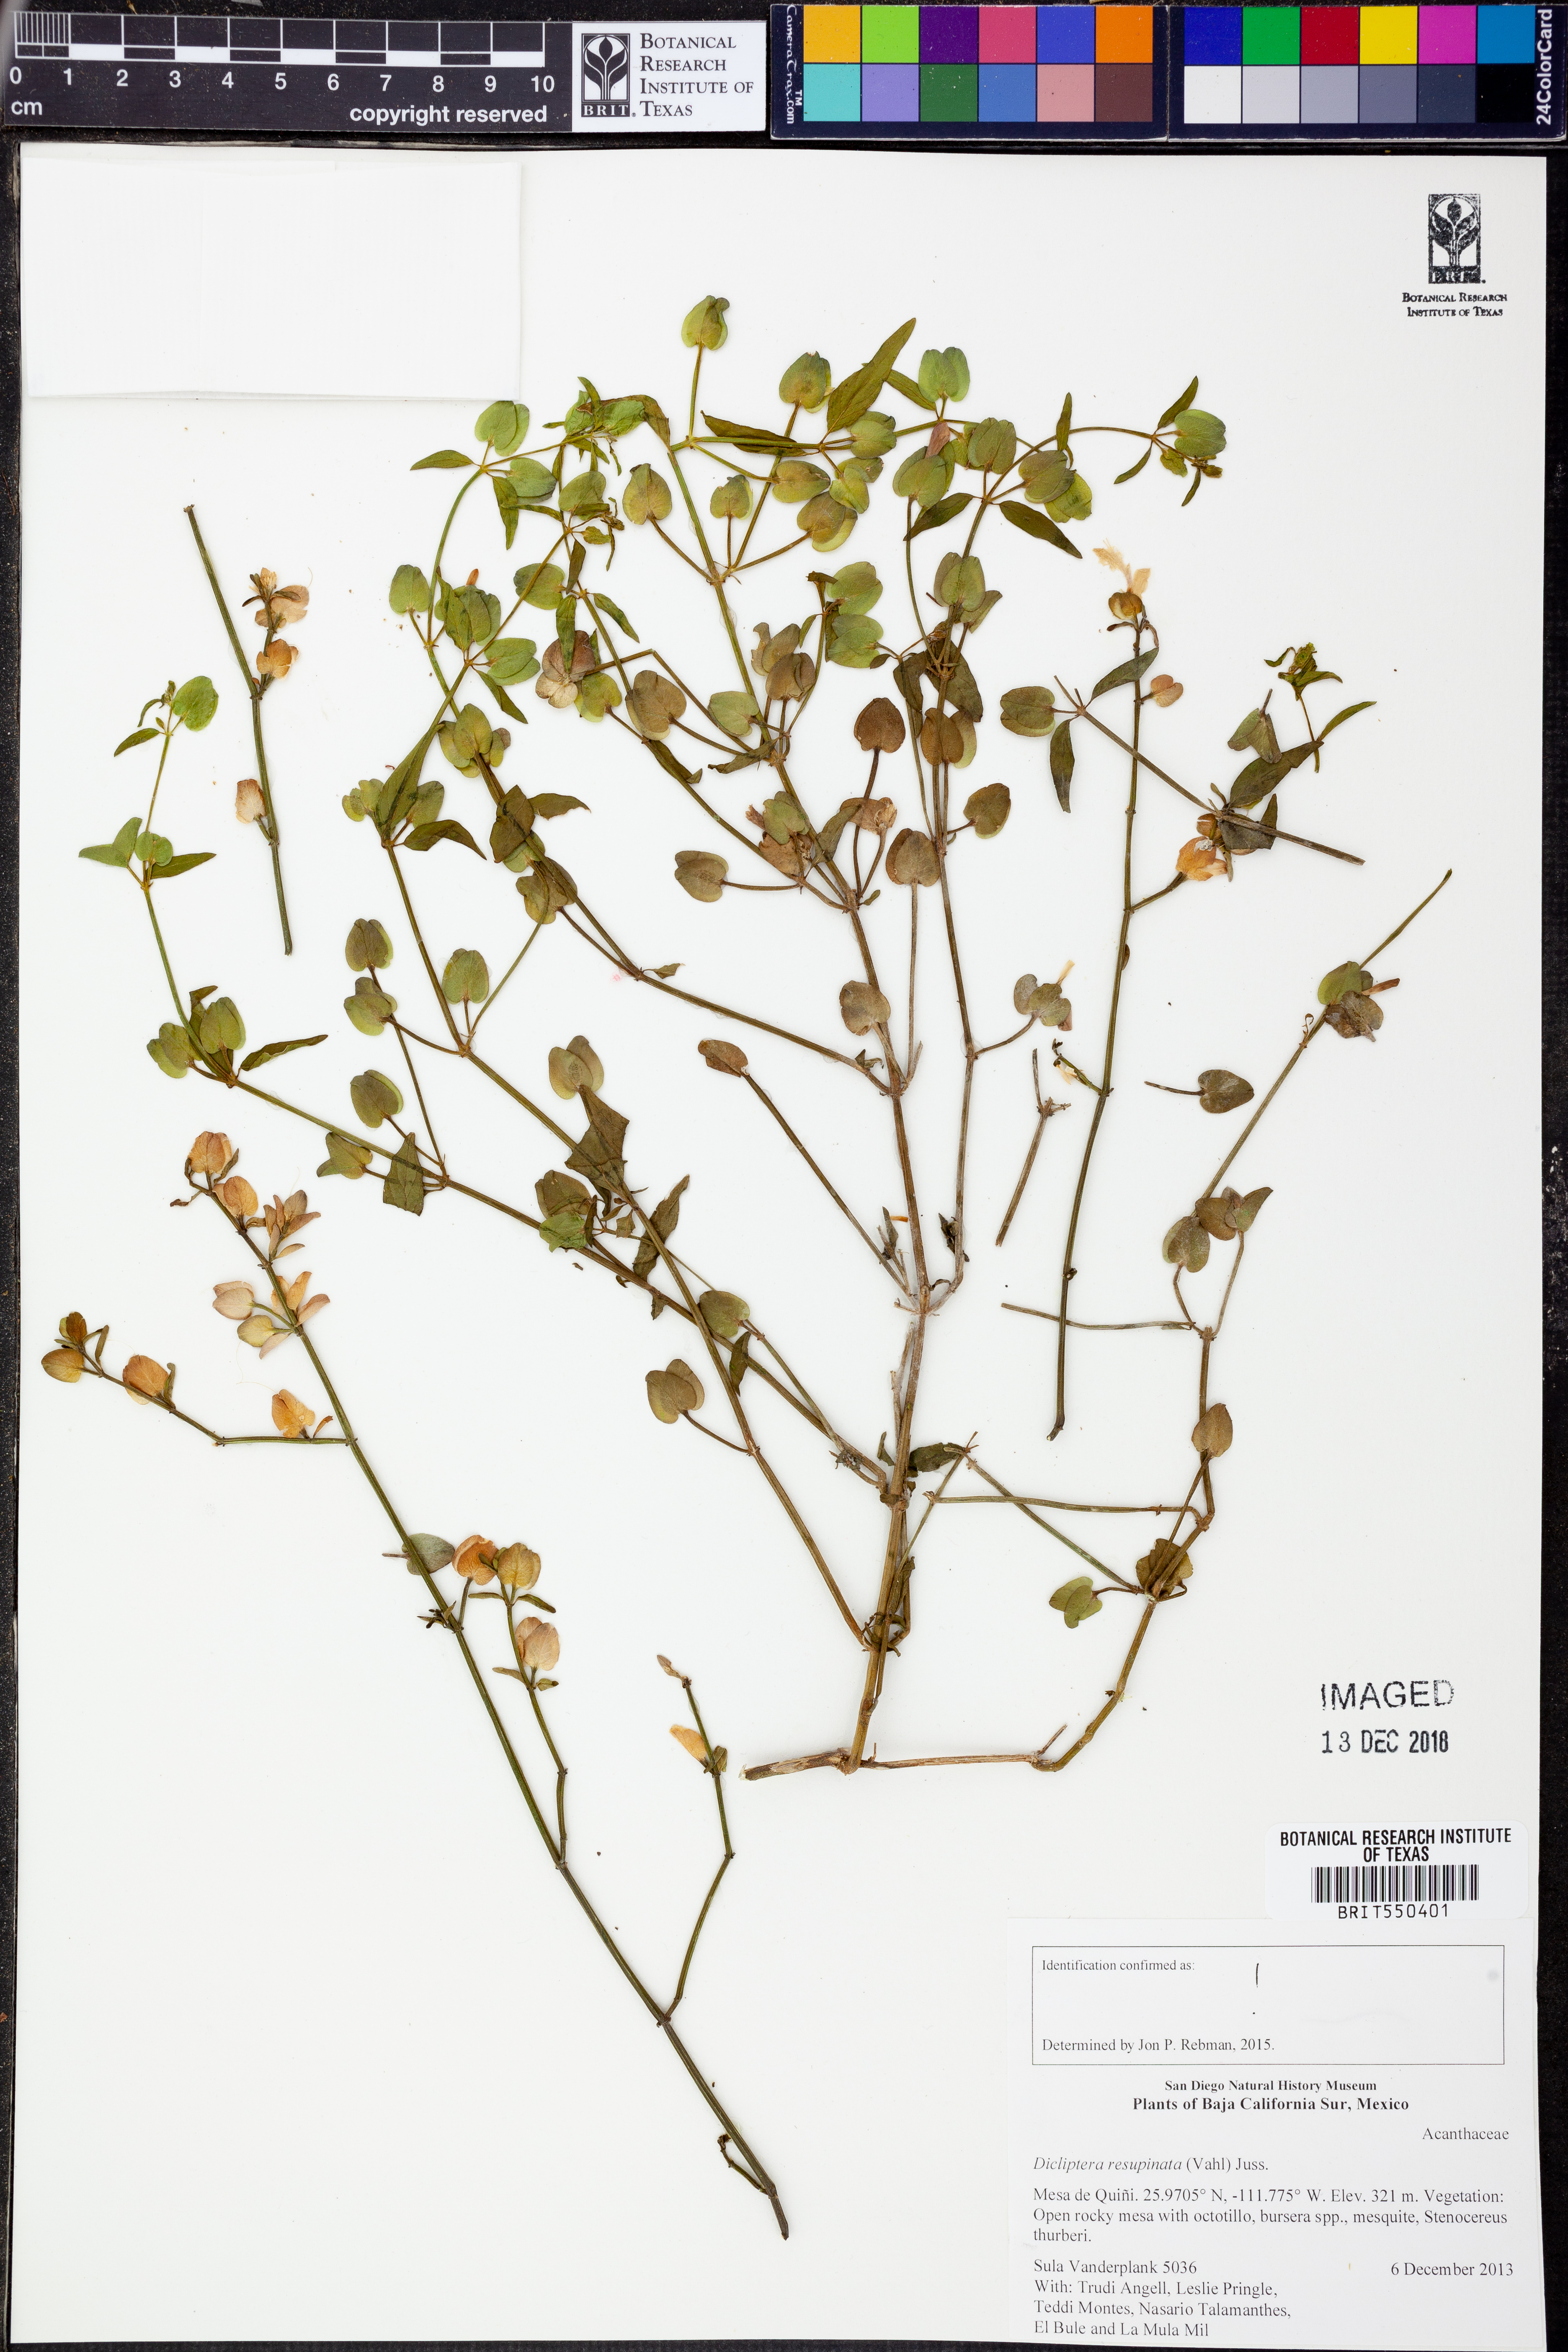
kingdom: Plantae
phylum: Tracheophyta
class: Magnoliopsida
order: Lamiales
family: Acanthaceae
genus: Dicliptera
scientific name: Dicliptera resupinata
